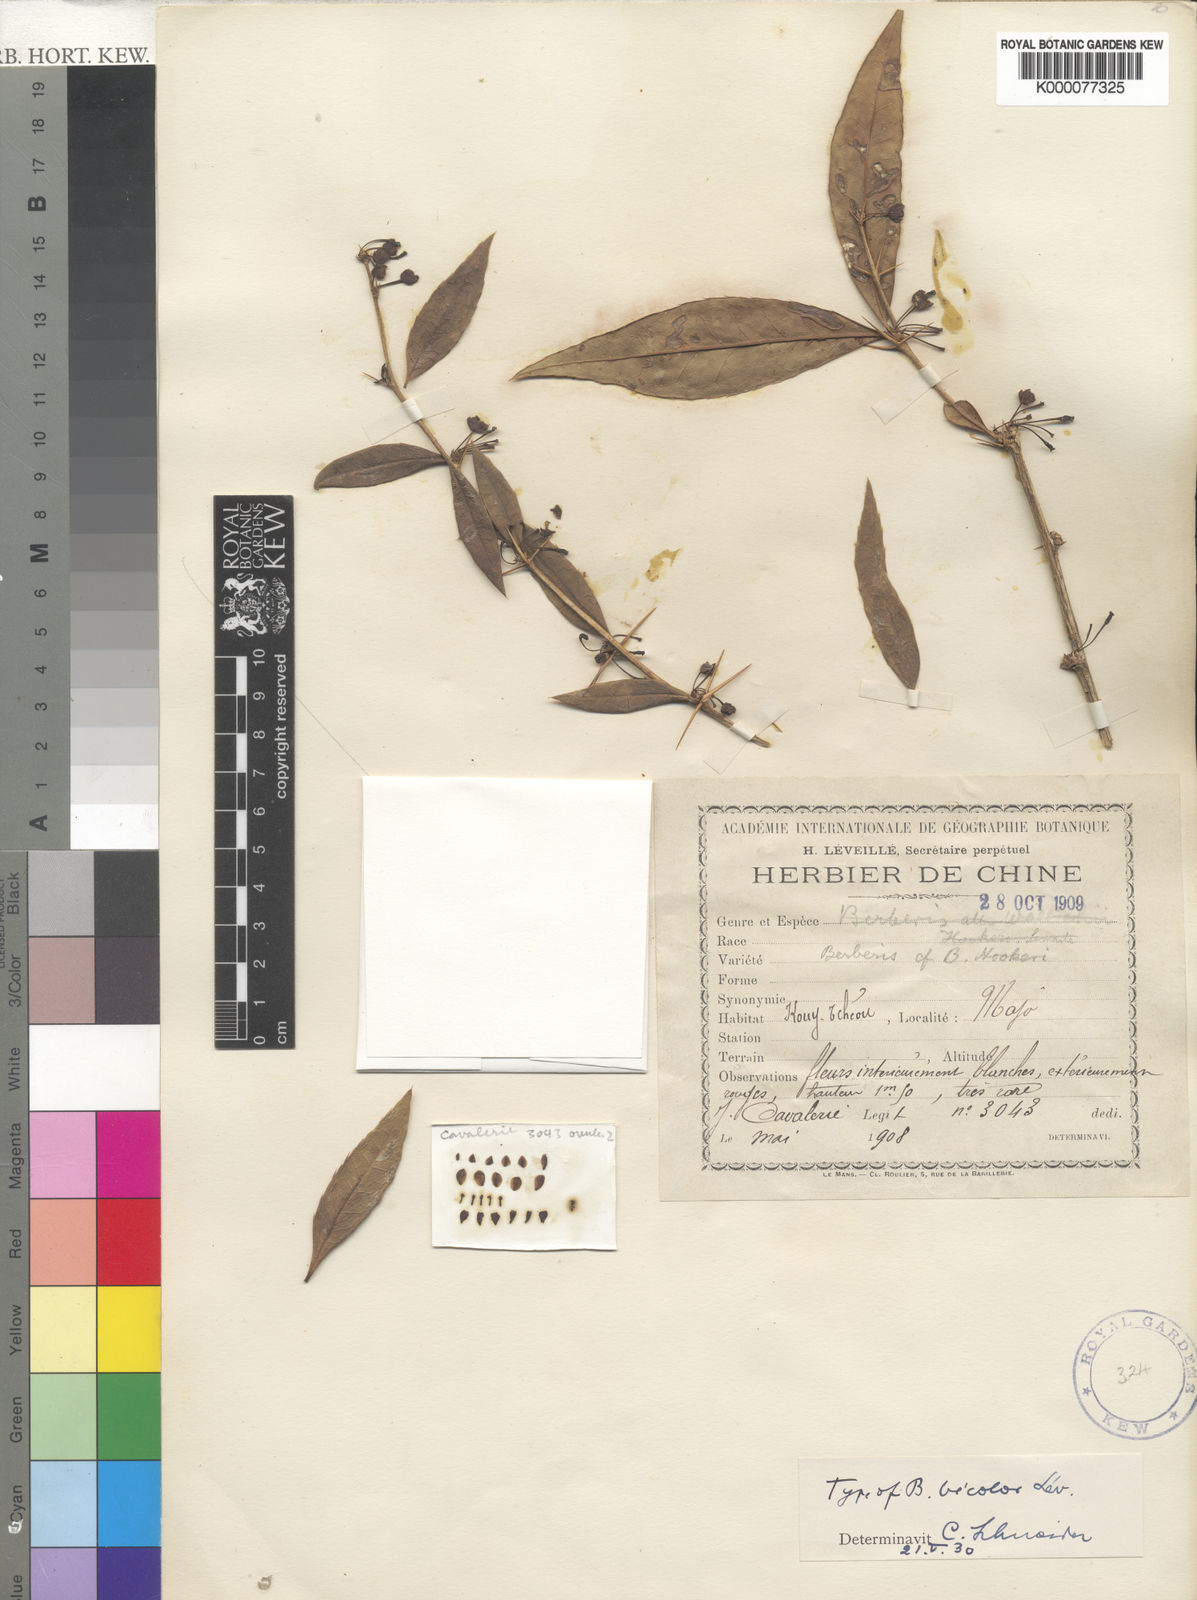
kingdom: Plantae
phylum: Tracheophyta
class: Magnoliopsida
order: Ranunculales
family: Berberidaceae
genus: Berberis
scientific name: Berberis
